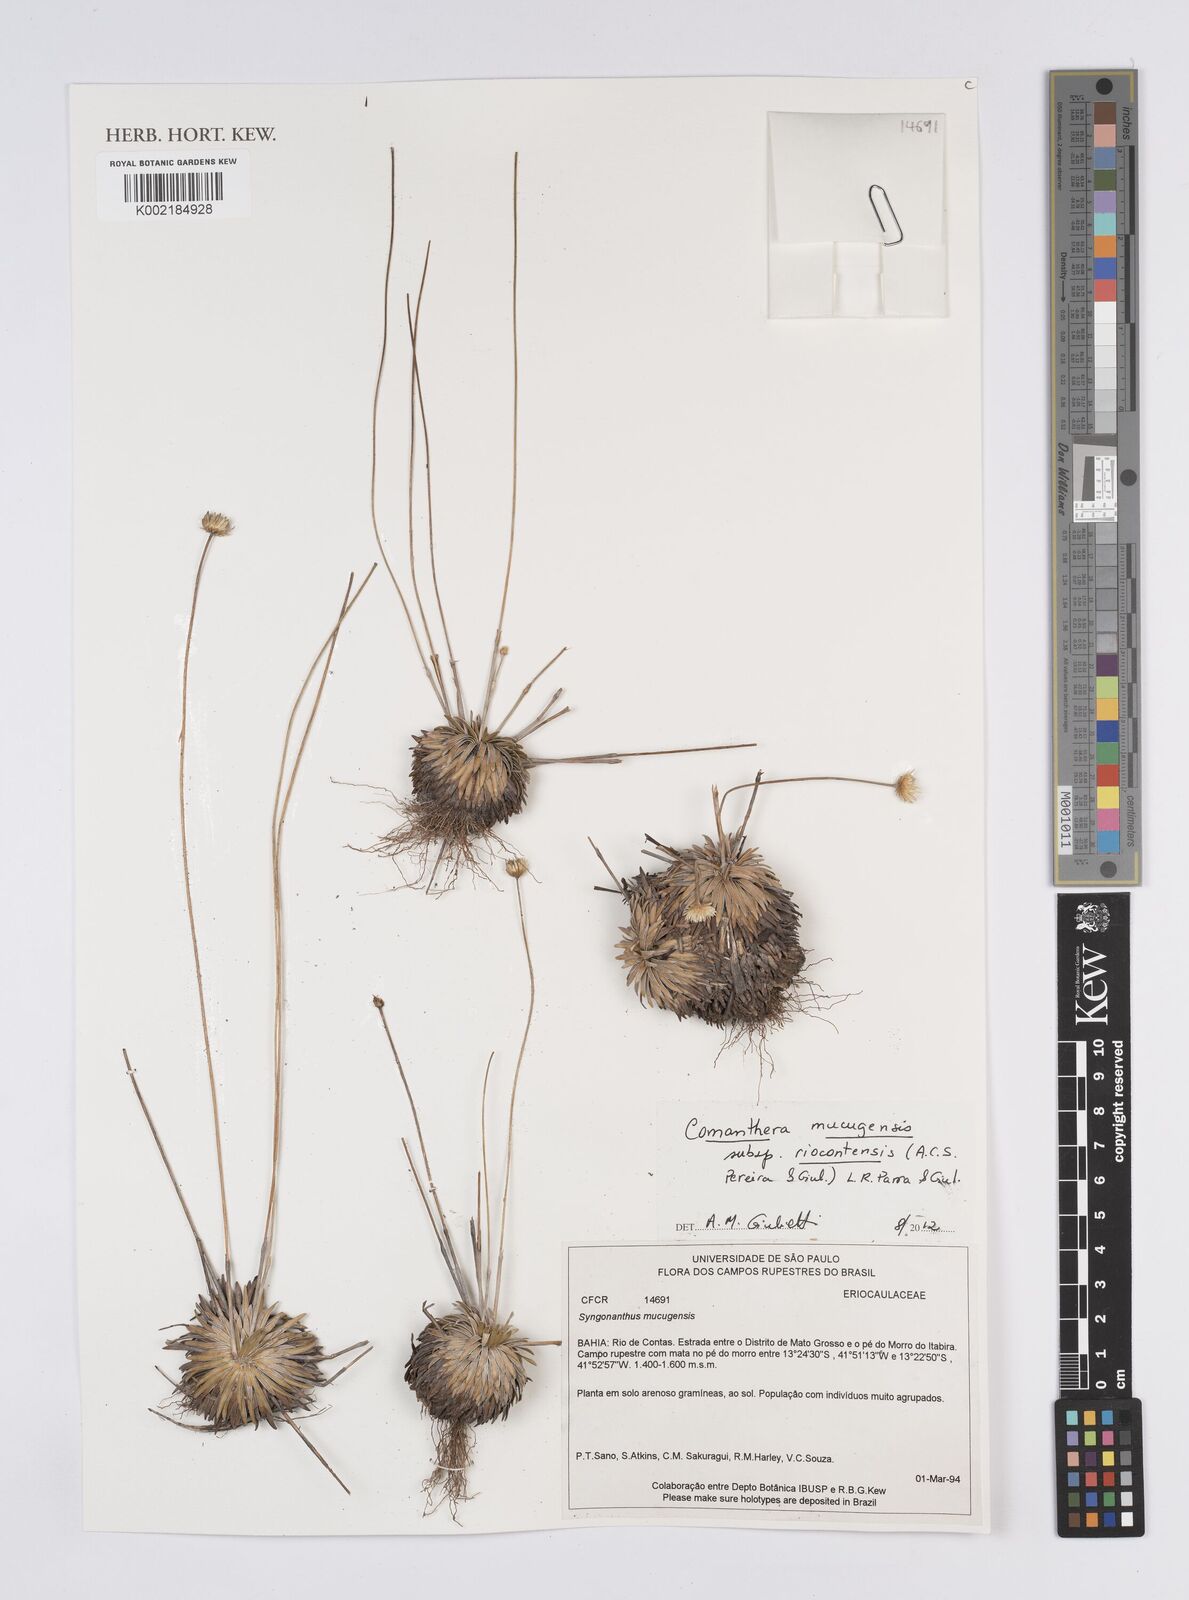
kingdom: Plantae
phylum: Tracheophyta
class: Liliopsida
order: Poales
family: Eriocaulaceae
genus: Comanthera
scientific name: Comanthera mucugensis
